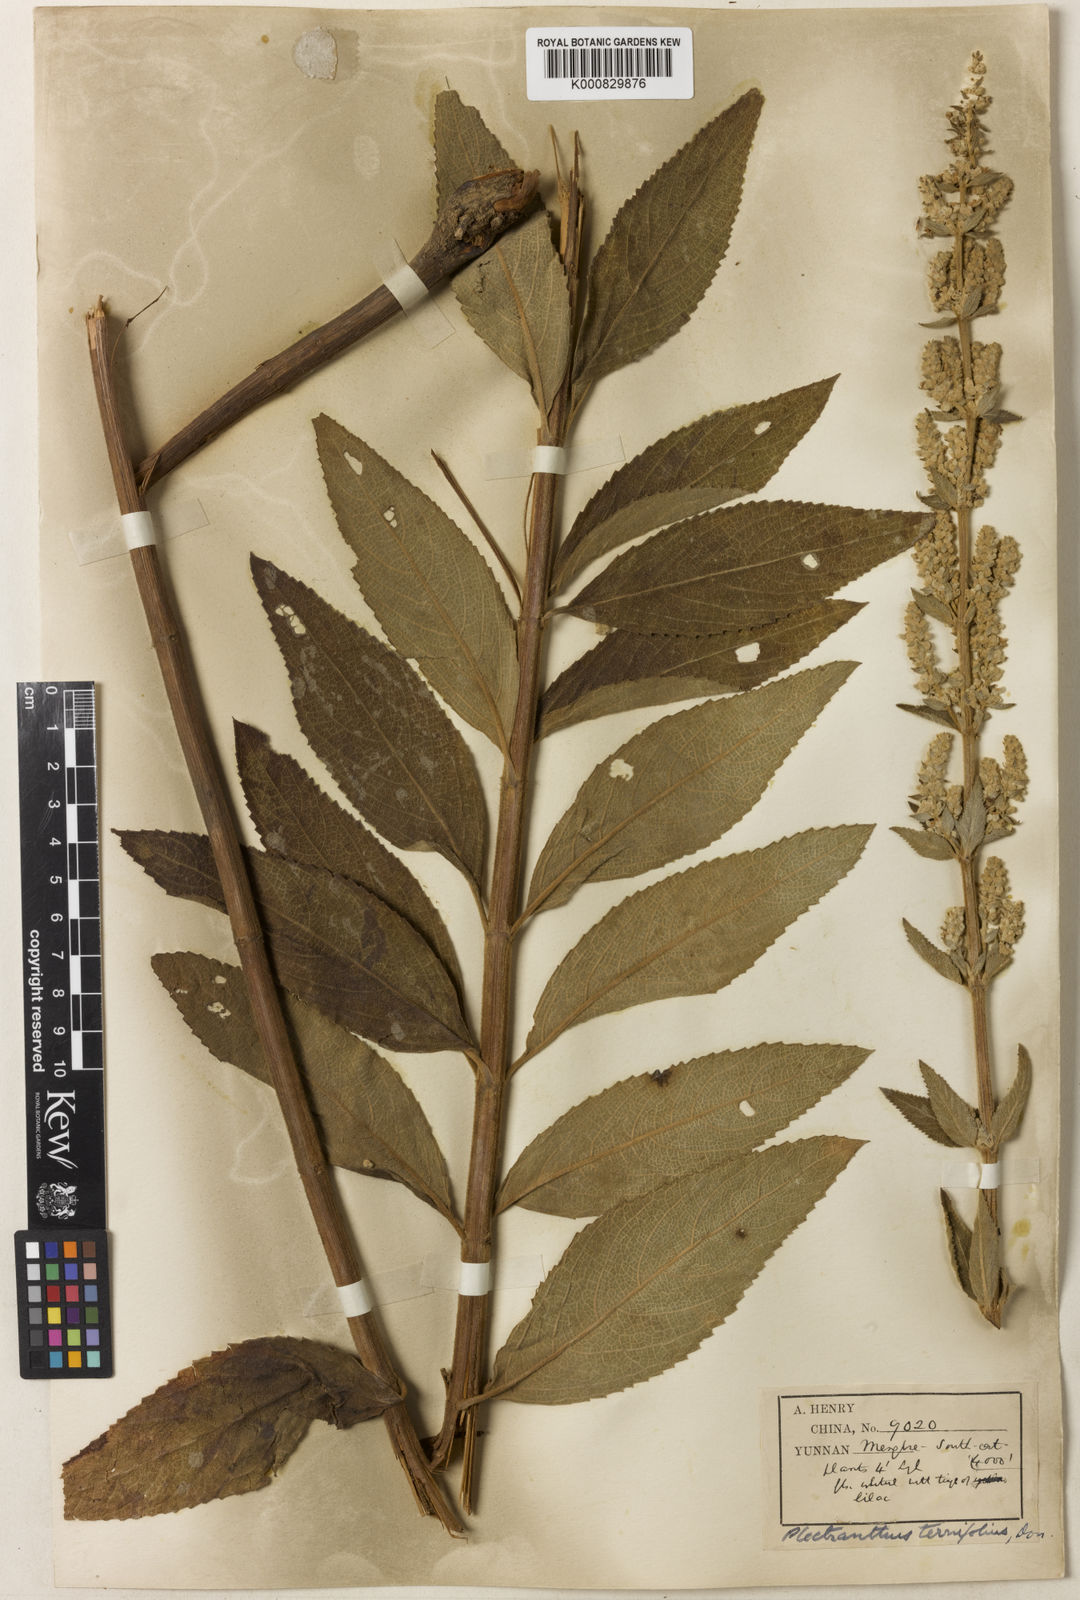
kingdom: Plantae
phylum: Tracheophyta
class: Magnoliopsida
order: Lamiales
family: Lamiaceae
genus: Isodon
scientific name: Isodon
